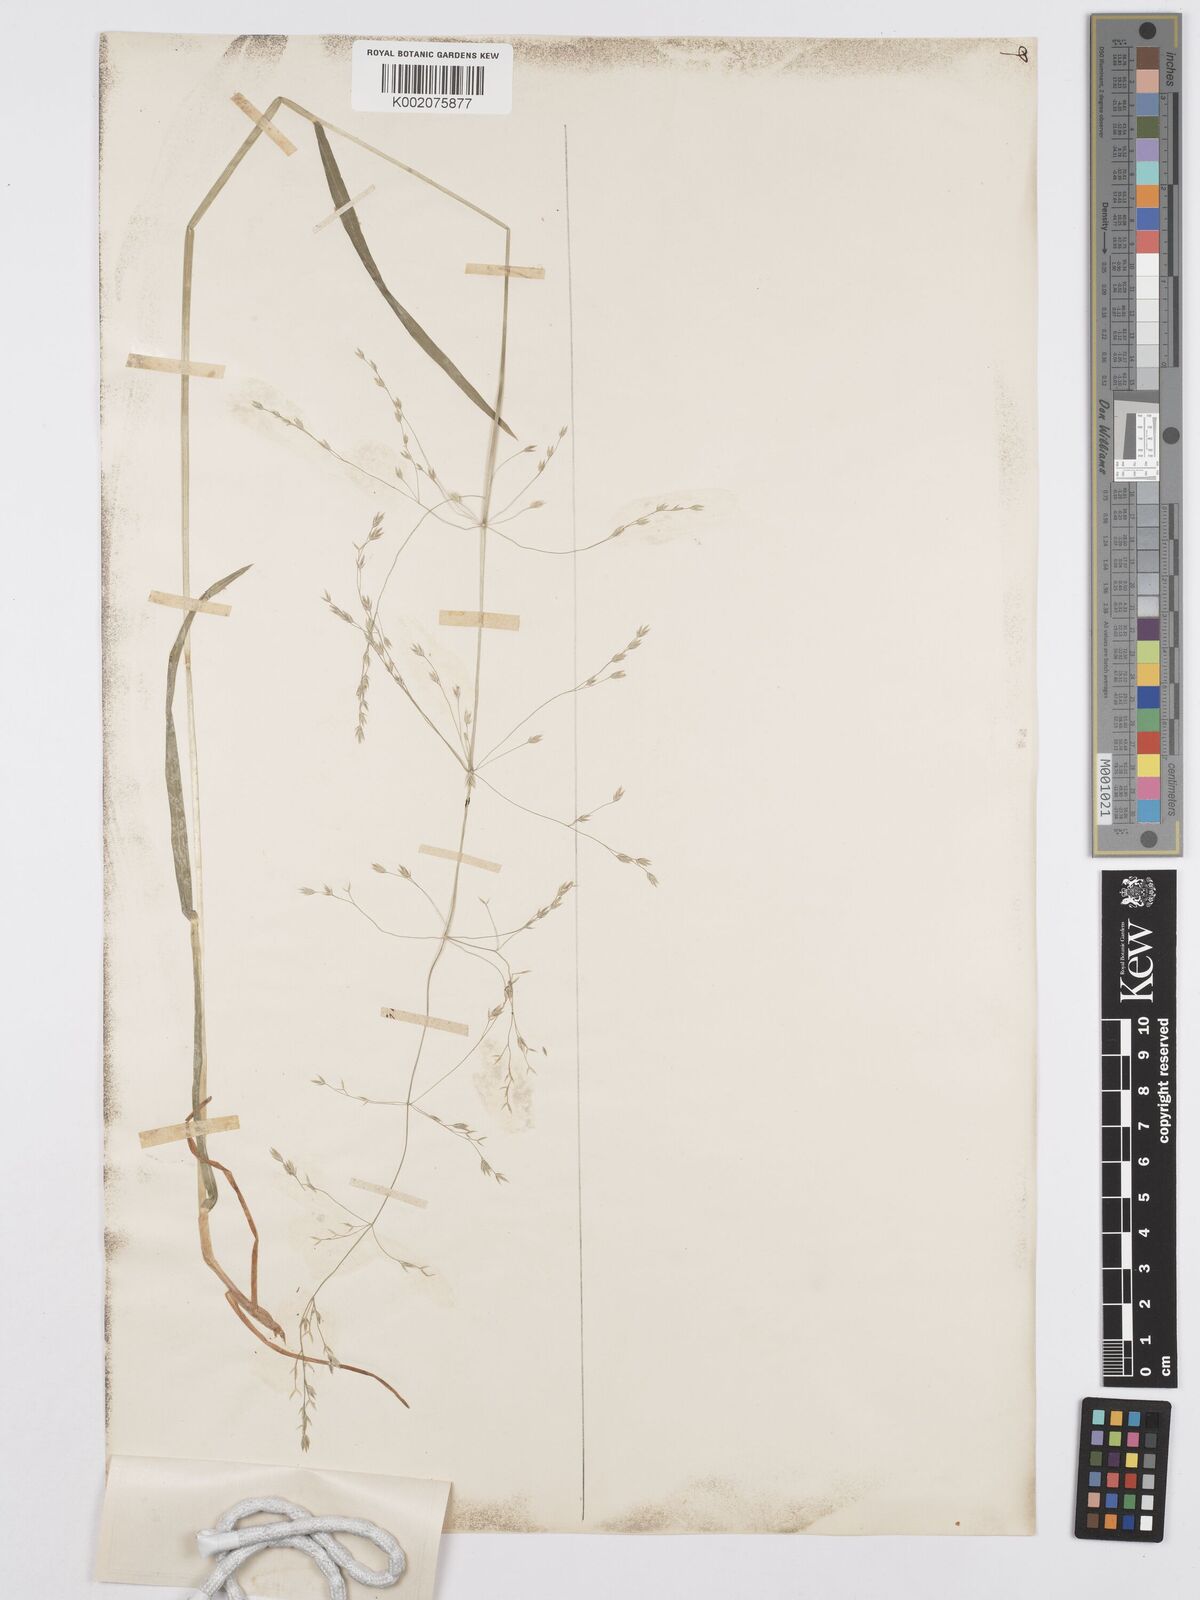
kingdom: Plantae
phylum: Tracheophyta
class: Liliopsida
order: Poales
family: Poaceae
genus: Poa
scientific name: Poa alsodes
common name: Grove bluegrass
